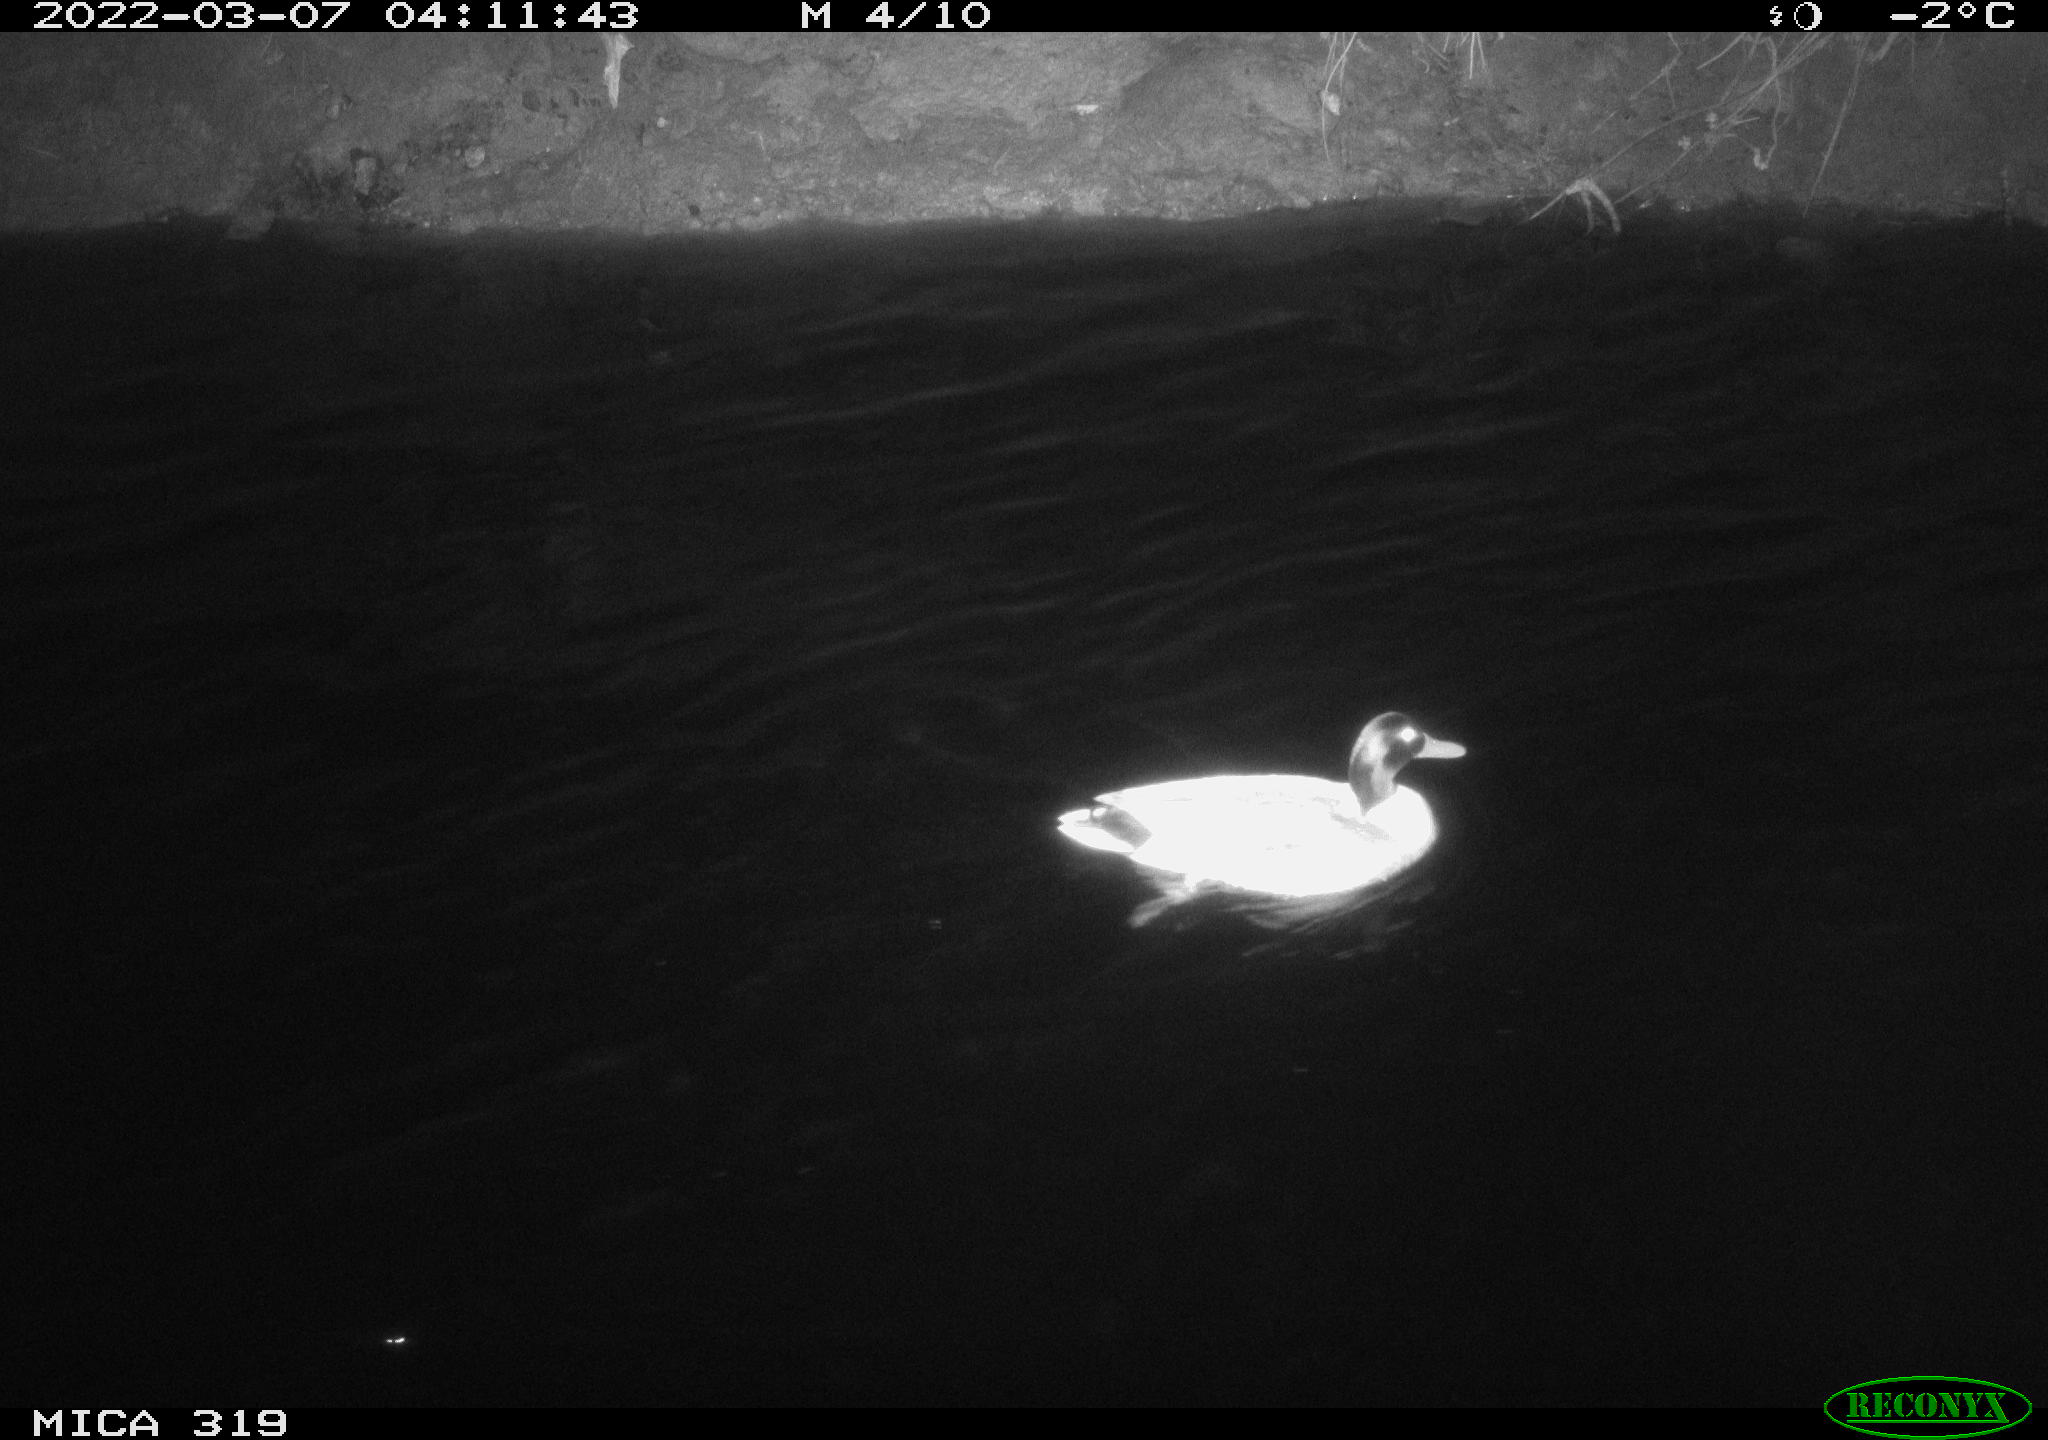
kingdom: Animalia
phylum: Chordata
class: Aves
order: Anseriformes
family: Anatidae
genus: Anas
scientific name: Anas platyrhynchos
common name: Mallard
